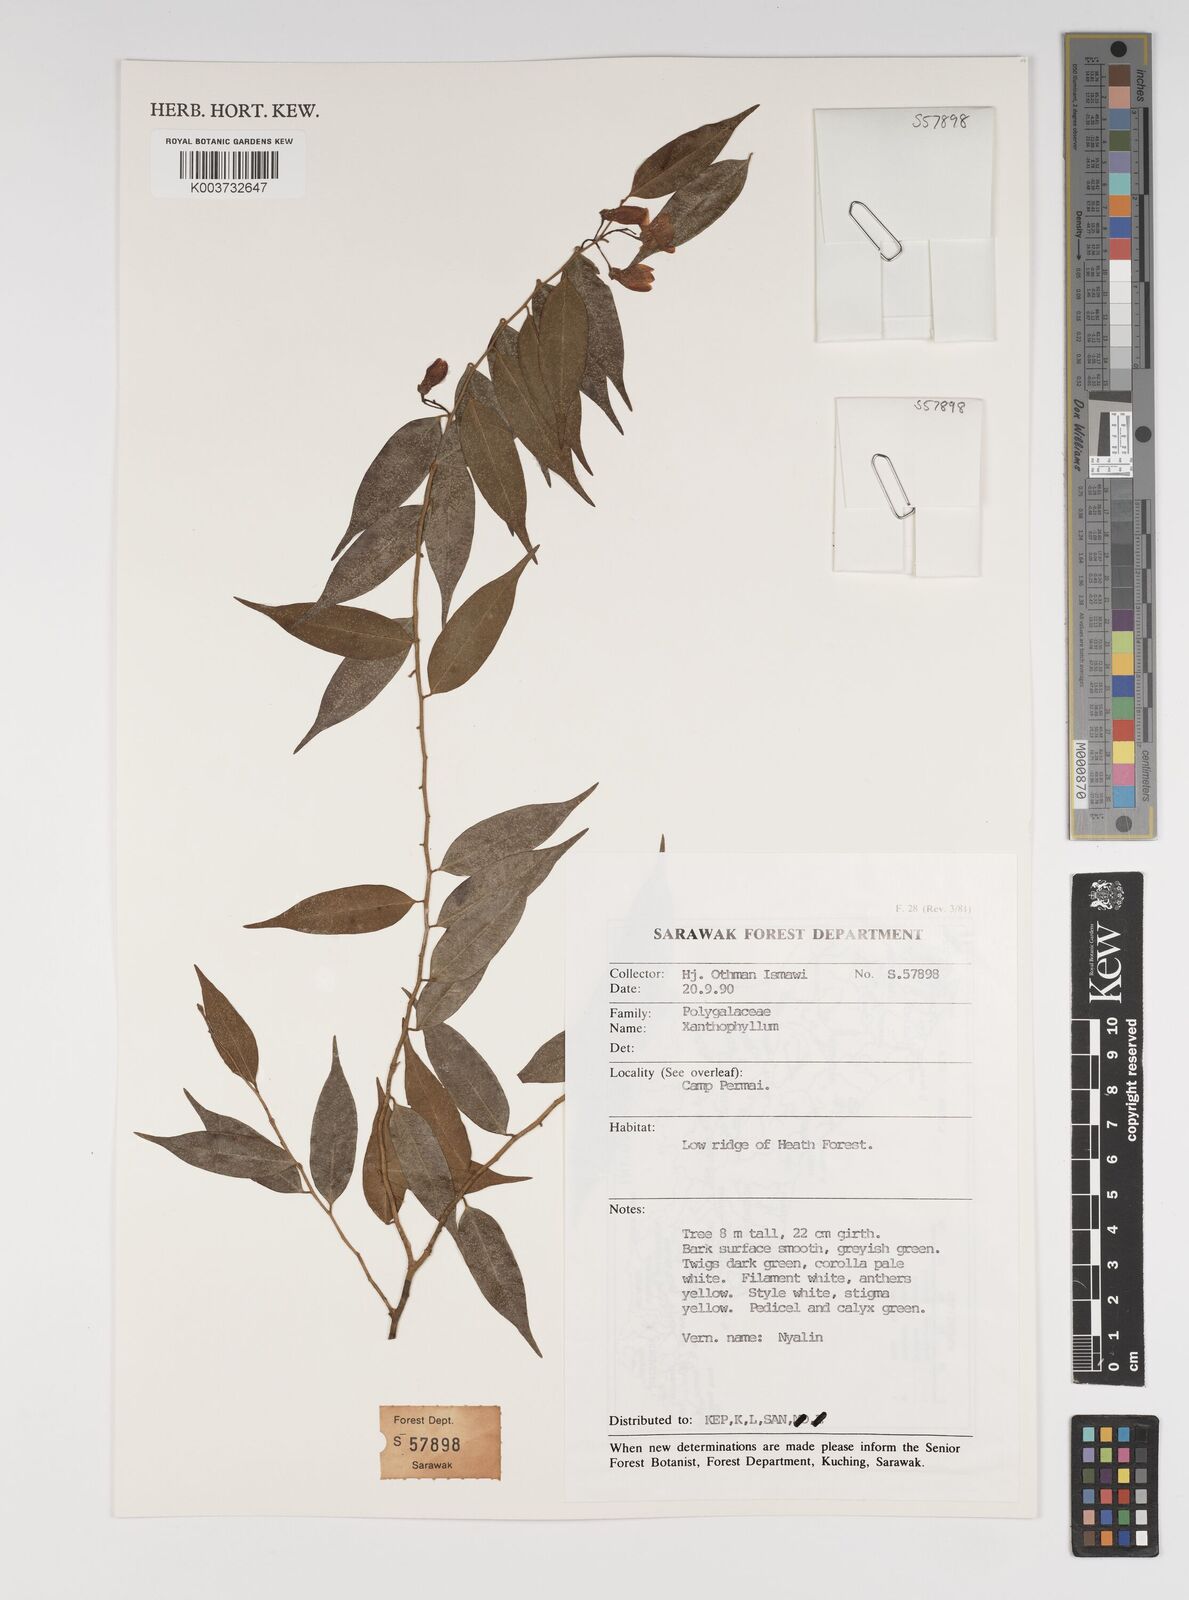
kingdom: Plantae
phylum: Tracheophyta
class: Magnoliopsida
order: Fabales
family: Polygalaceae
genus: Xanthophyllum
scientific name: Xanthophyllum
